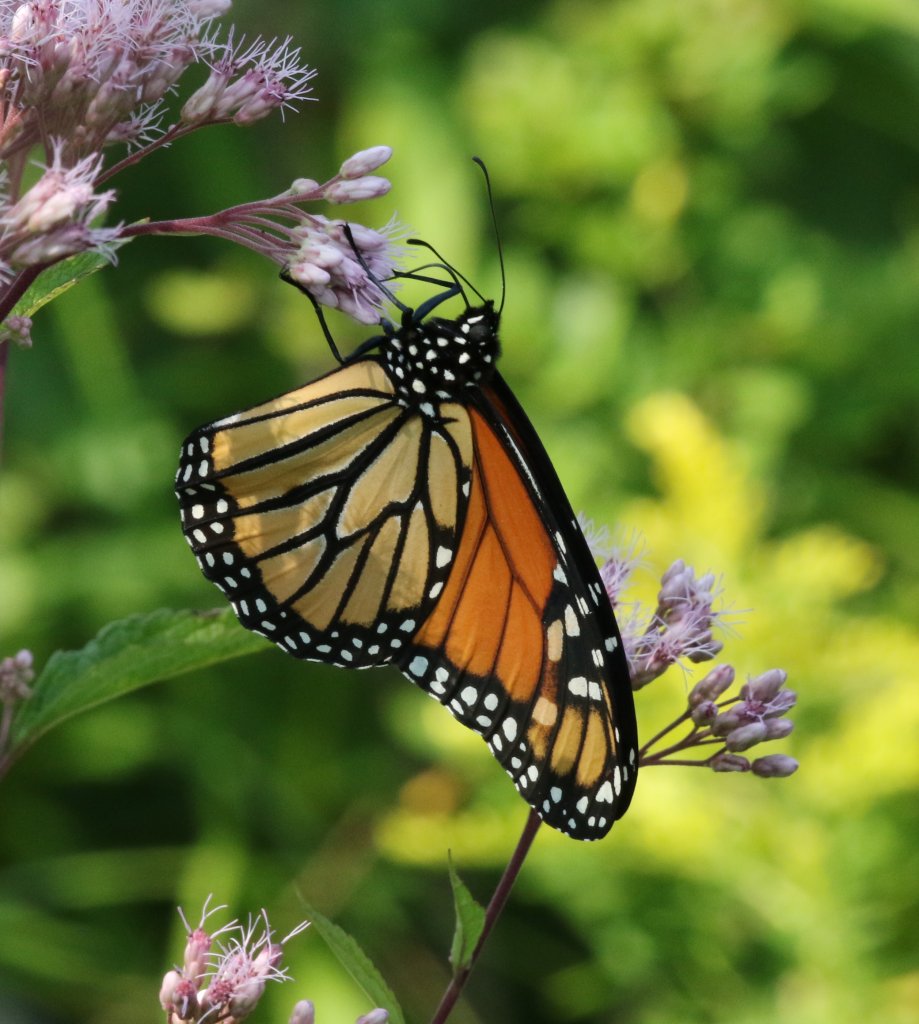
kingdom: Animalia
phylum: Arthropoda
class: Insecta
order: Lepidoptera
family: Nymphalidae
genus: Danaus
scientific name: Danaus plexippus
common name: Monarch
